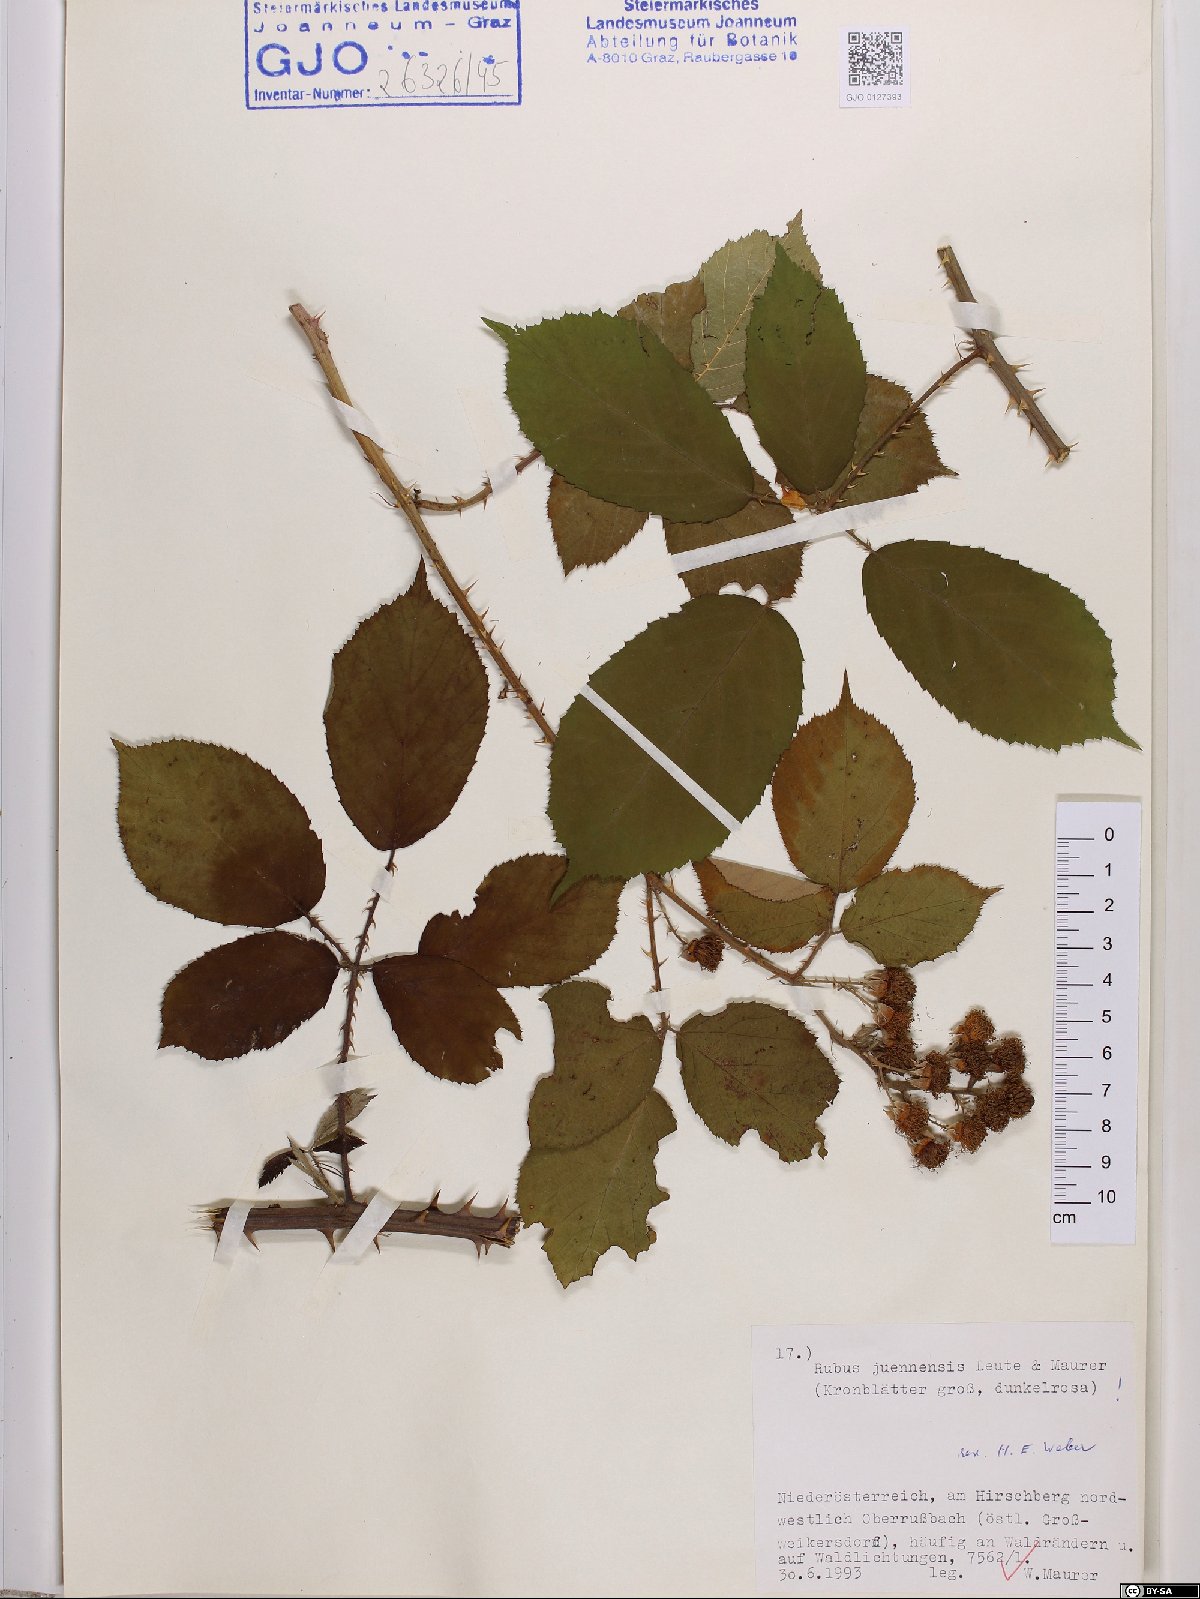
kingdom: Plantae
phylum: Tracheophyta
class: Magnoliopsida
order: Rosales
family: Rosaceae
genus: Rubus
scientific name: Rubus juennensis
